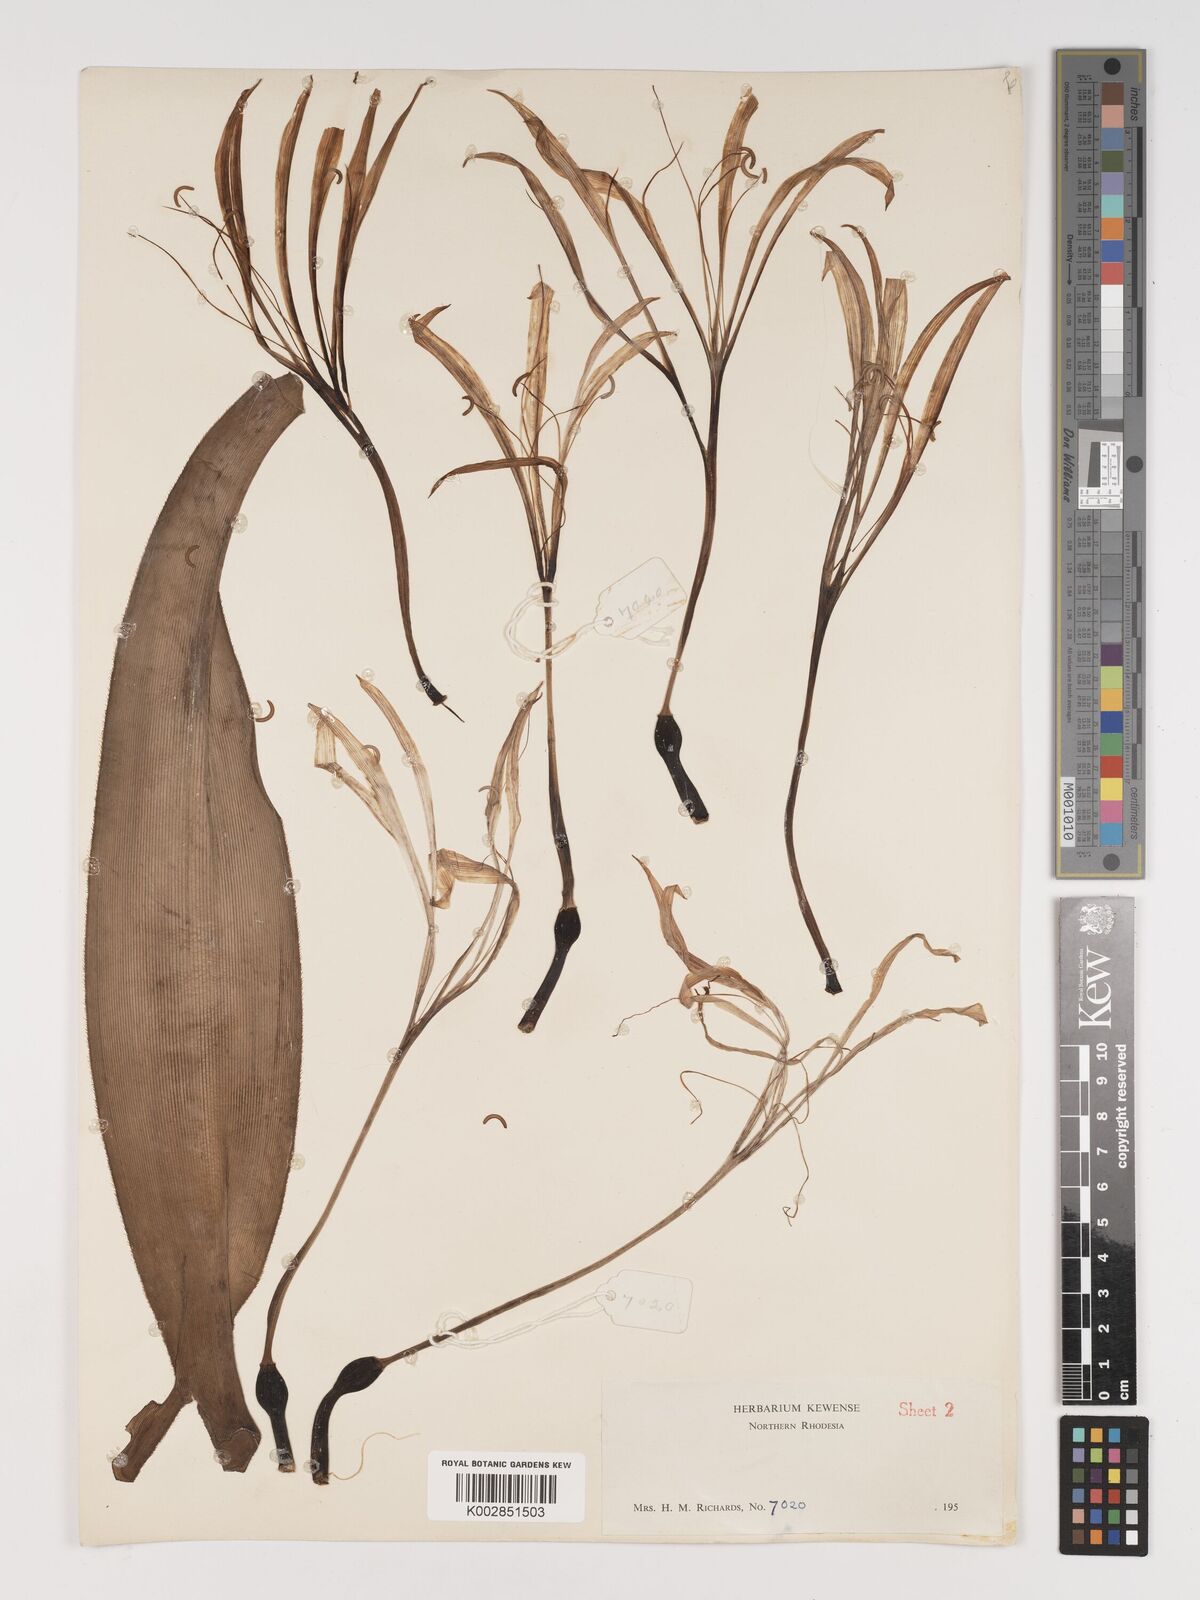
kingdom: Plantae
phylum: Tracheophyta
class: Liliopsida
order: Asparagales
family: Amaryllidaceae
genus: Crinum
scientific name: Crinum stuhlmannii
